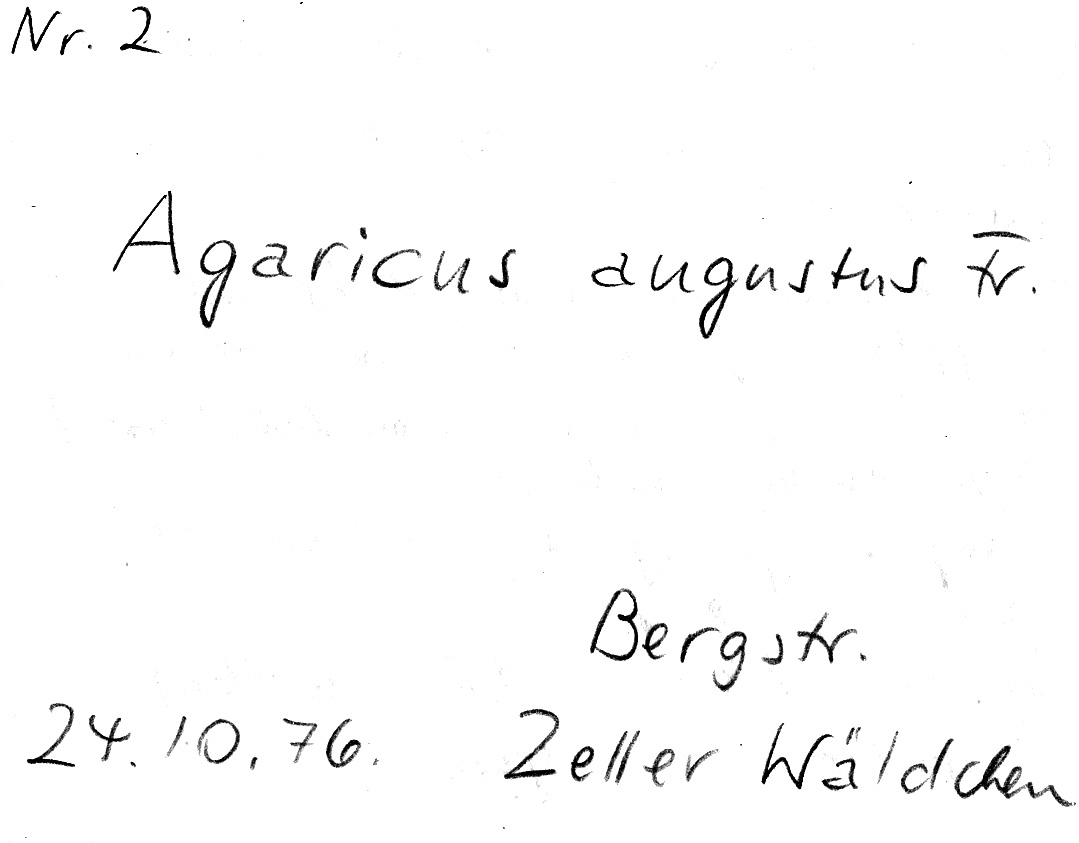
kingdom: Fungi
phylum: Basidiomycota
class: Agaricomycetes
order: Agaricales
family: Agaricaceae
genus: Agaricus
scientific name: Agaricus augustus
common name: Prince
